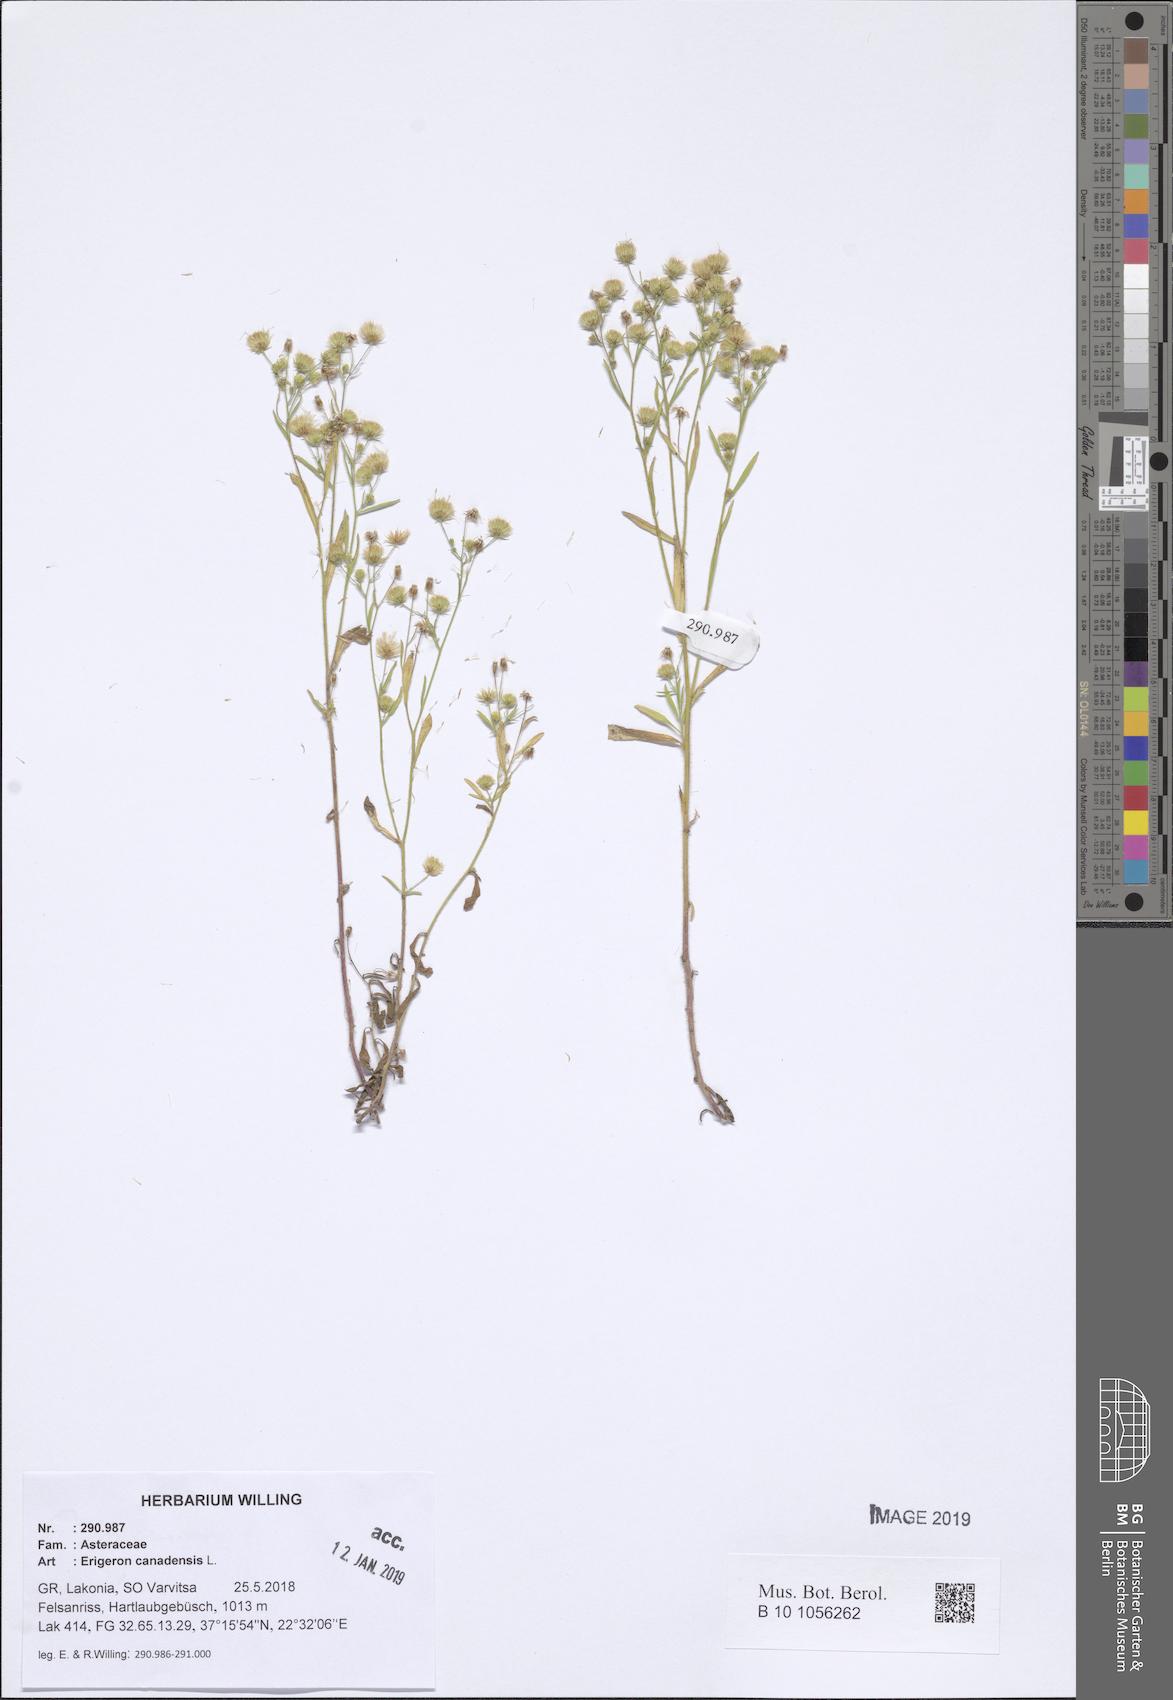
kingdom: Plantae
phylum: Tracheophyta
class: Magnoliopsida
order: Asterales
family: Asteraceae
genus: Erigeron
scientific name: Erigeron canadensis
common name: Canadian fleabane
